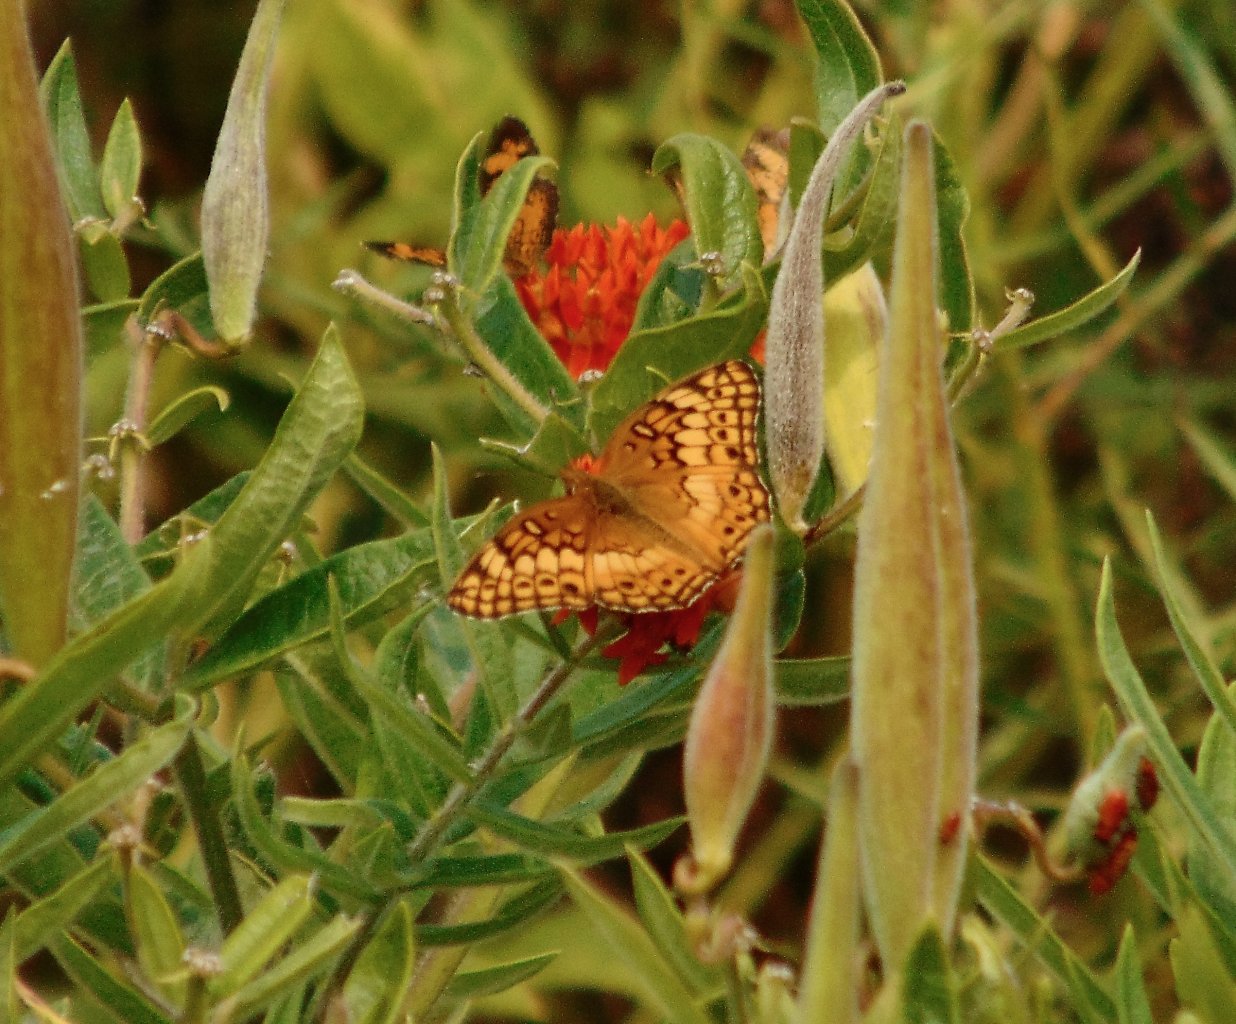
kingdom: Animalia
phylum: Arthropoda
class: Insecta
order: Lepidoptera
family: Nymphalidae
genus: Euptoieta
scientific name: Euptoieta claudia
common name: Variegated Fritillary
